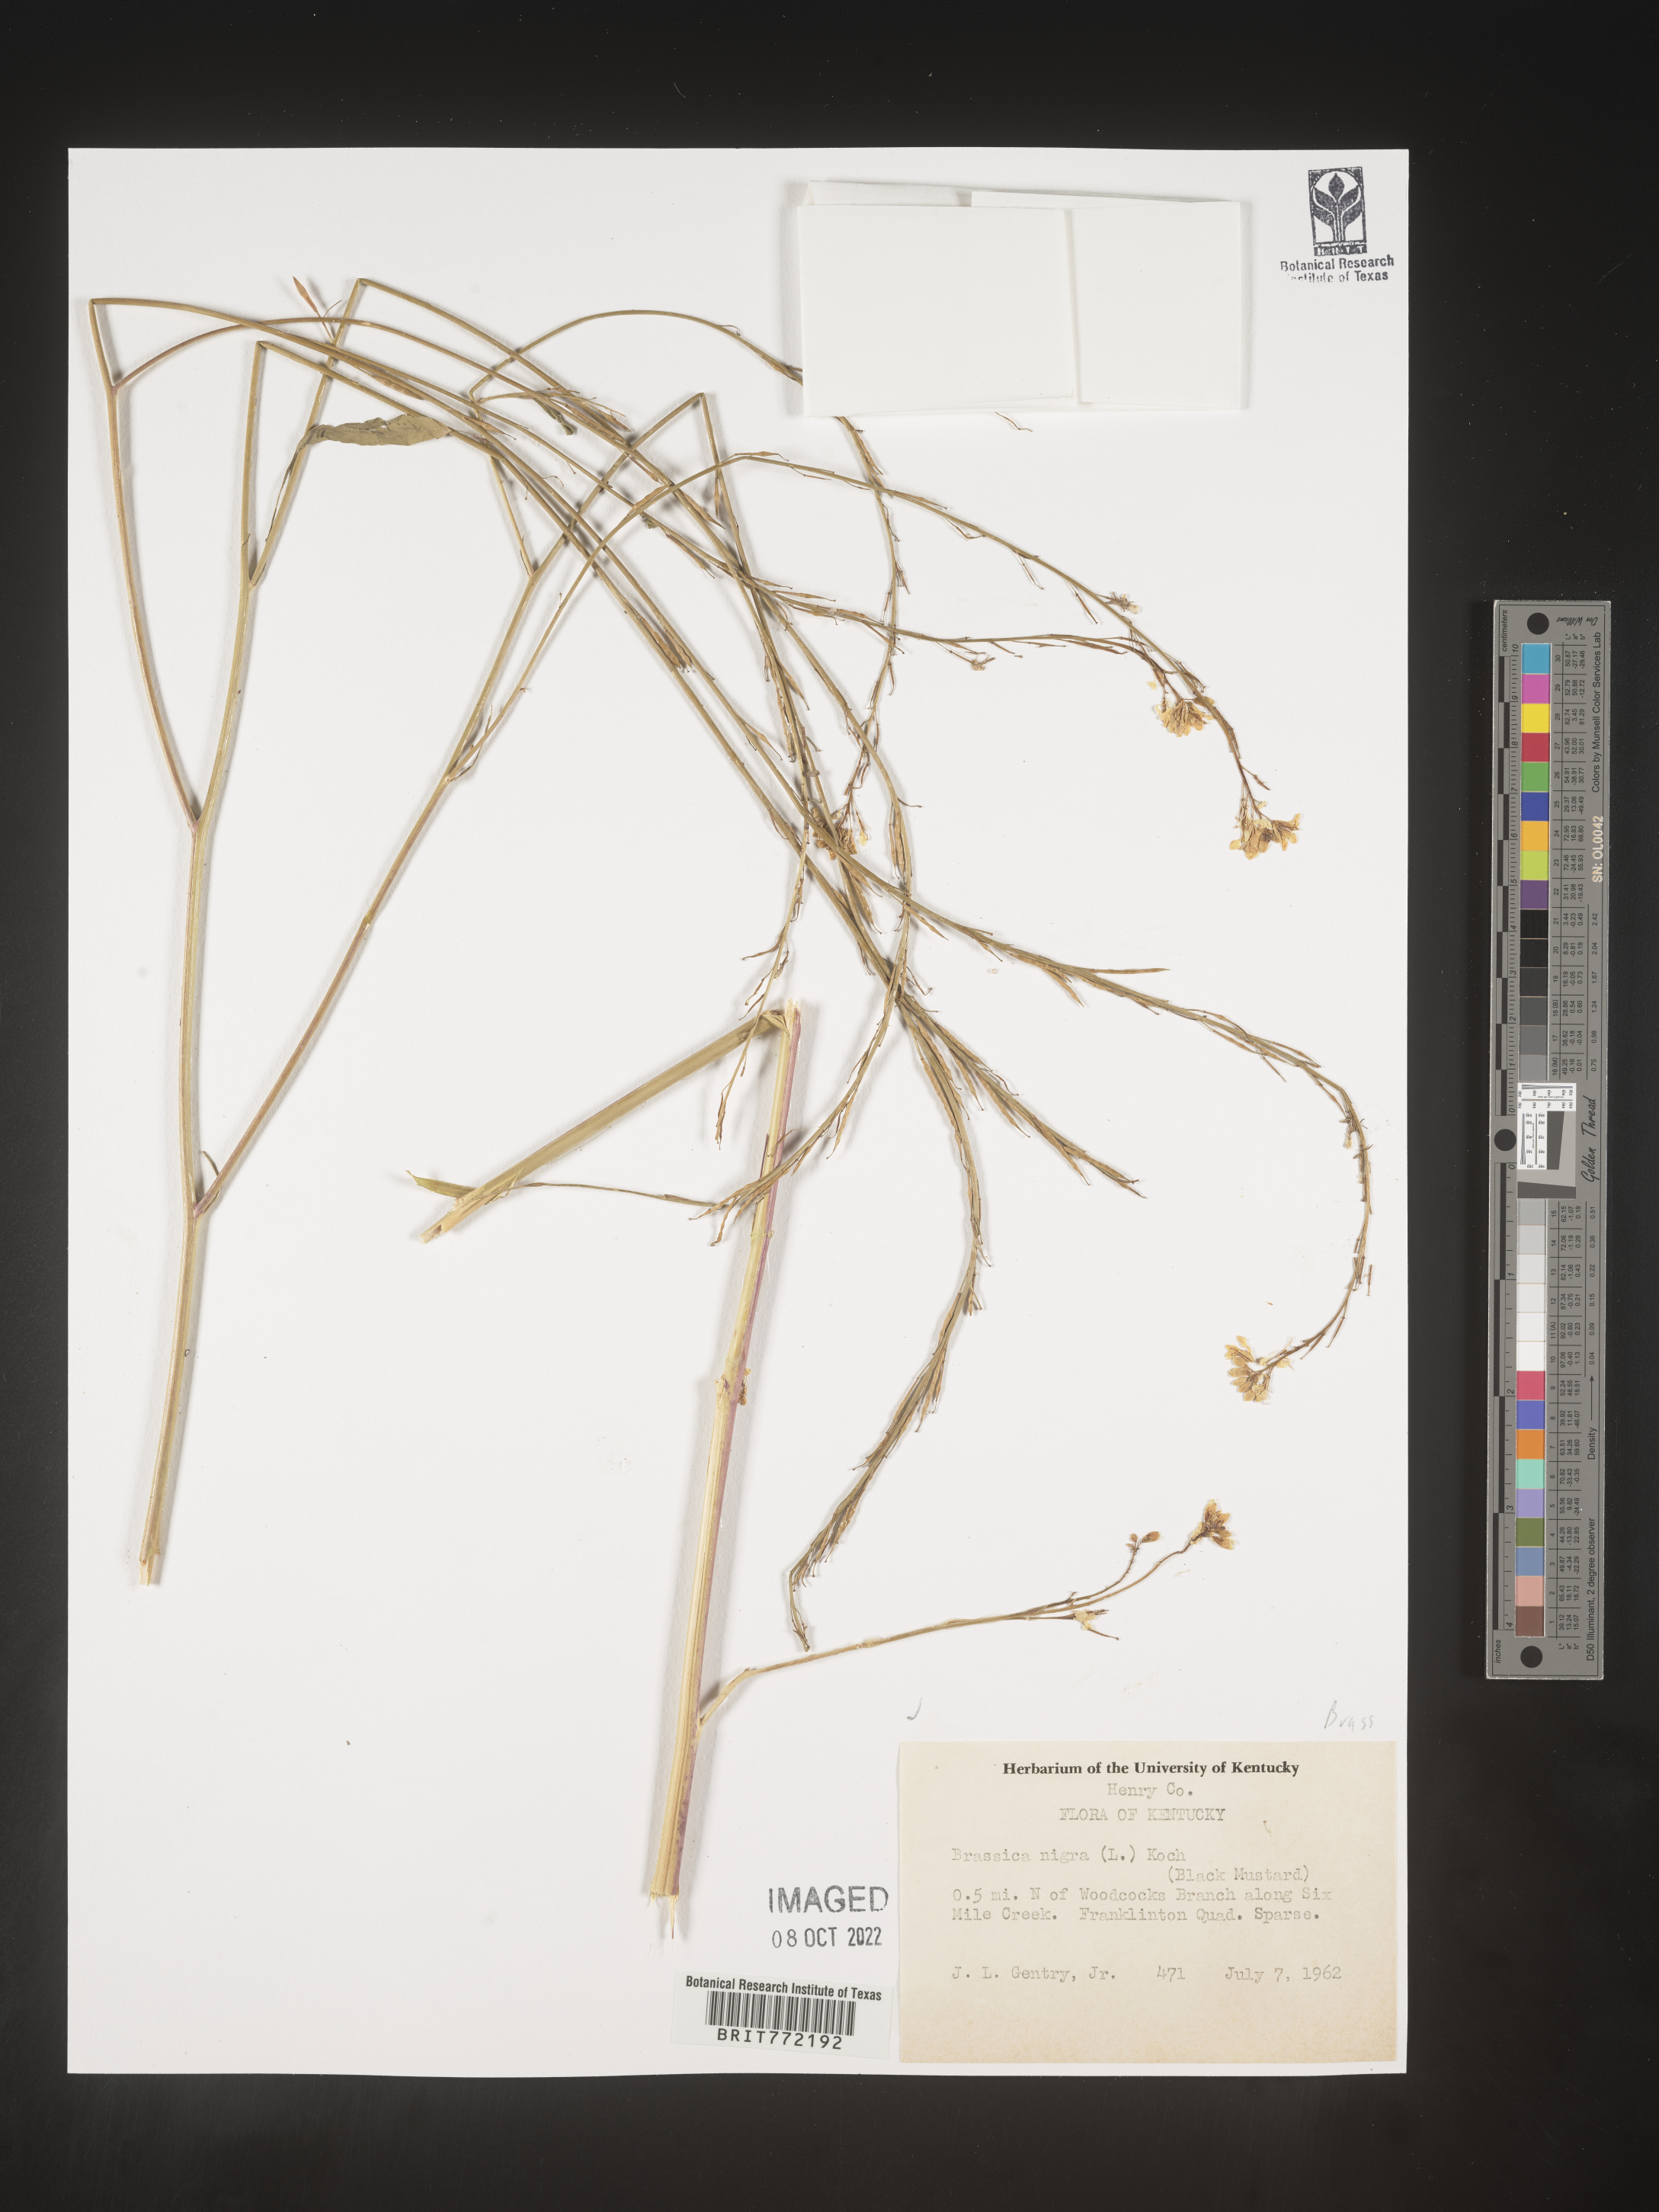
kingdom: Plantae
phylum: Tracheophyta
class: Magnoliopsida
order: Brassicales
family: Brassicaceae
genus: Brassica
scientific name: Brassica nigra
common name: Black mustard
